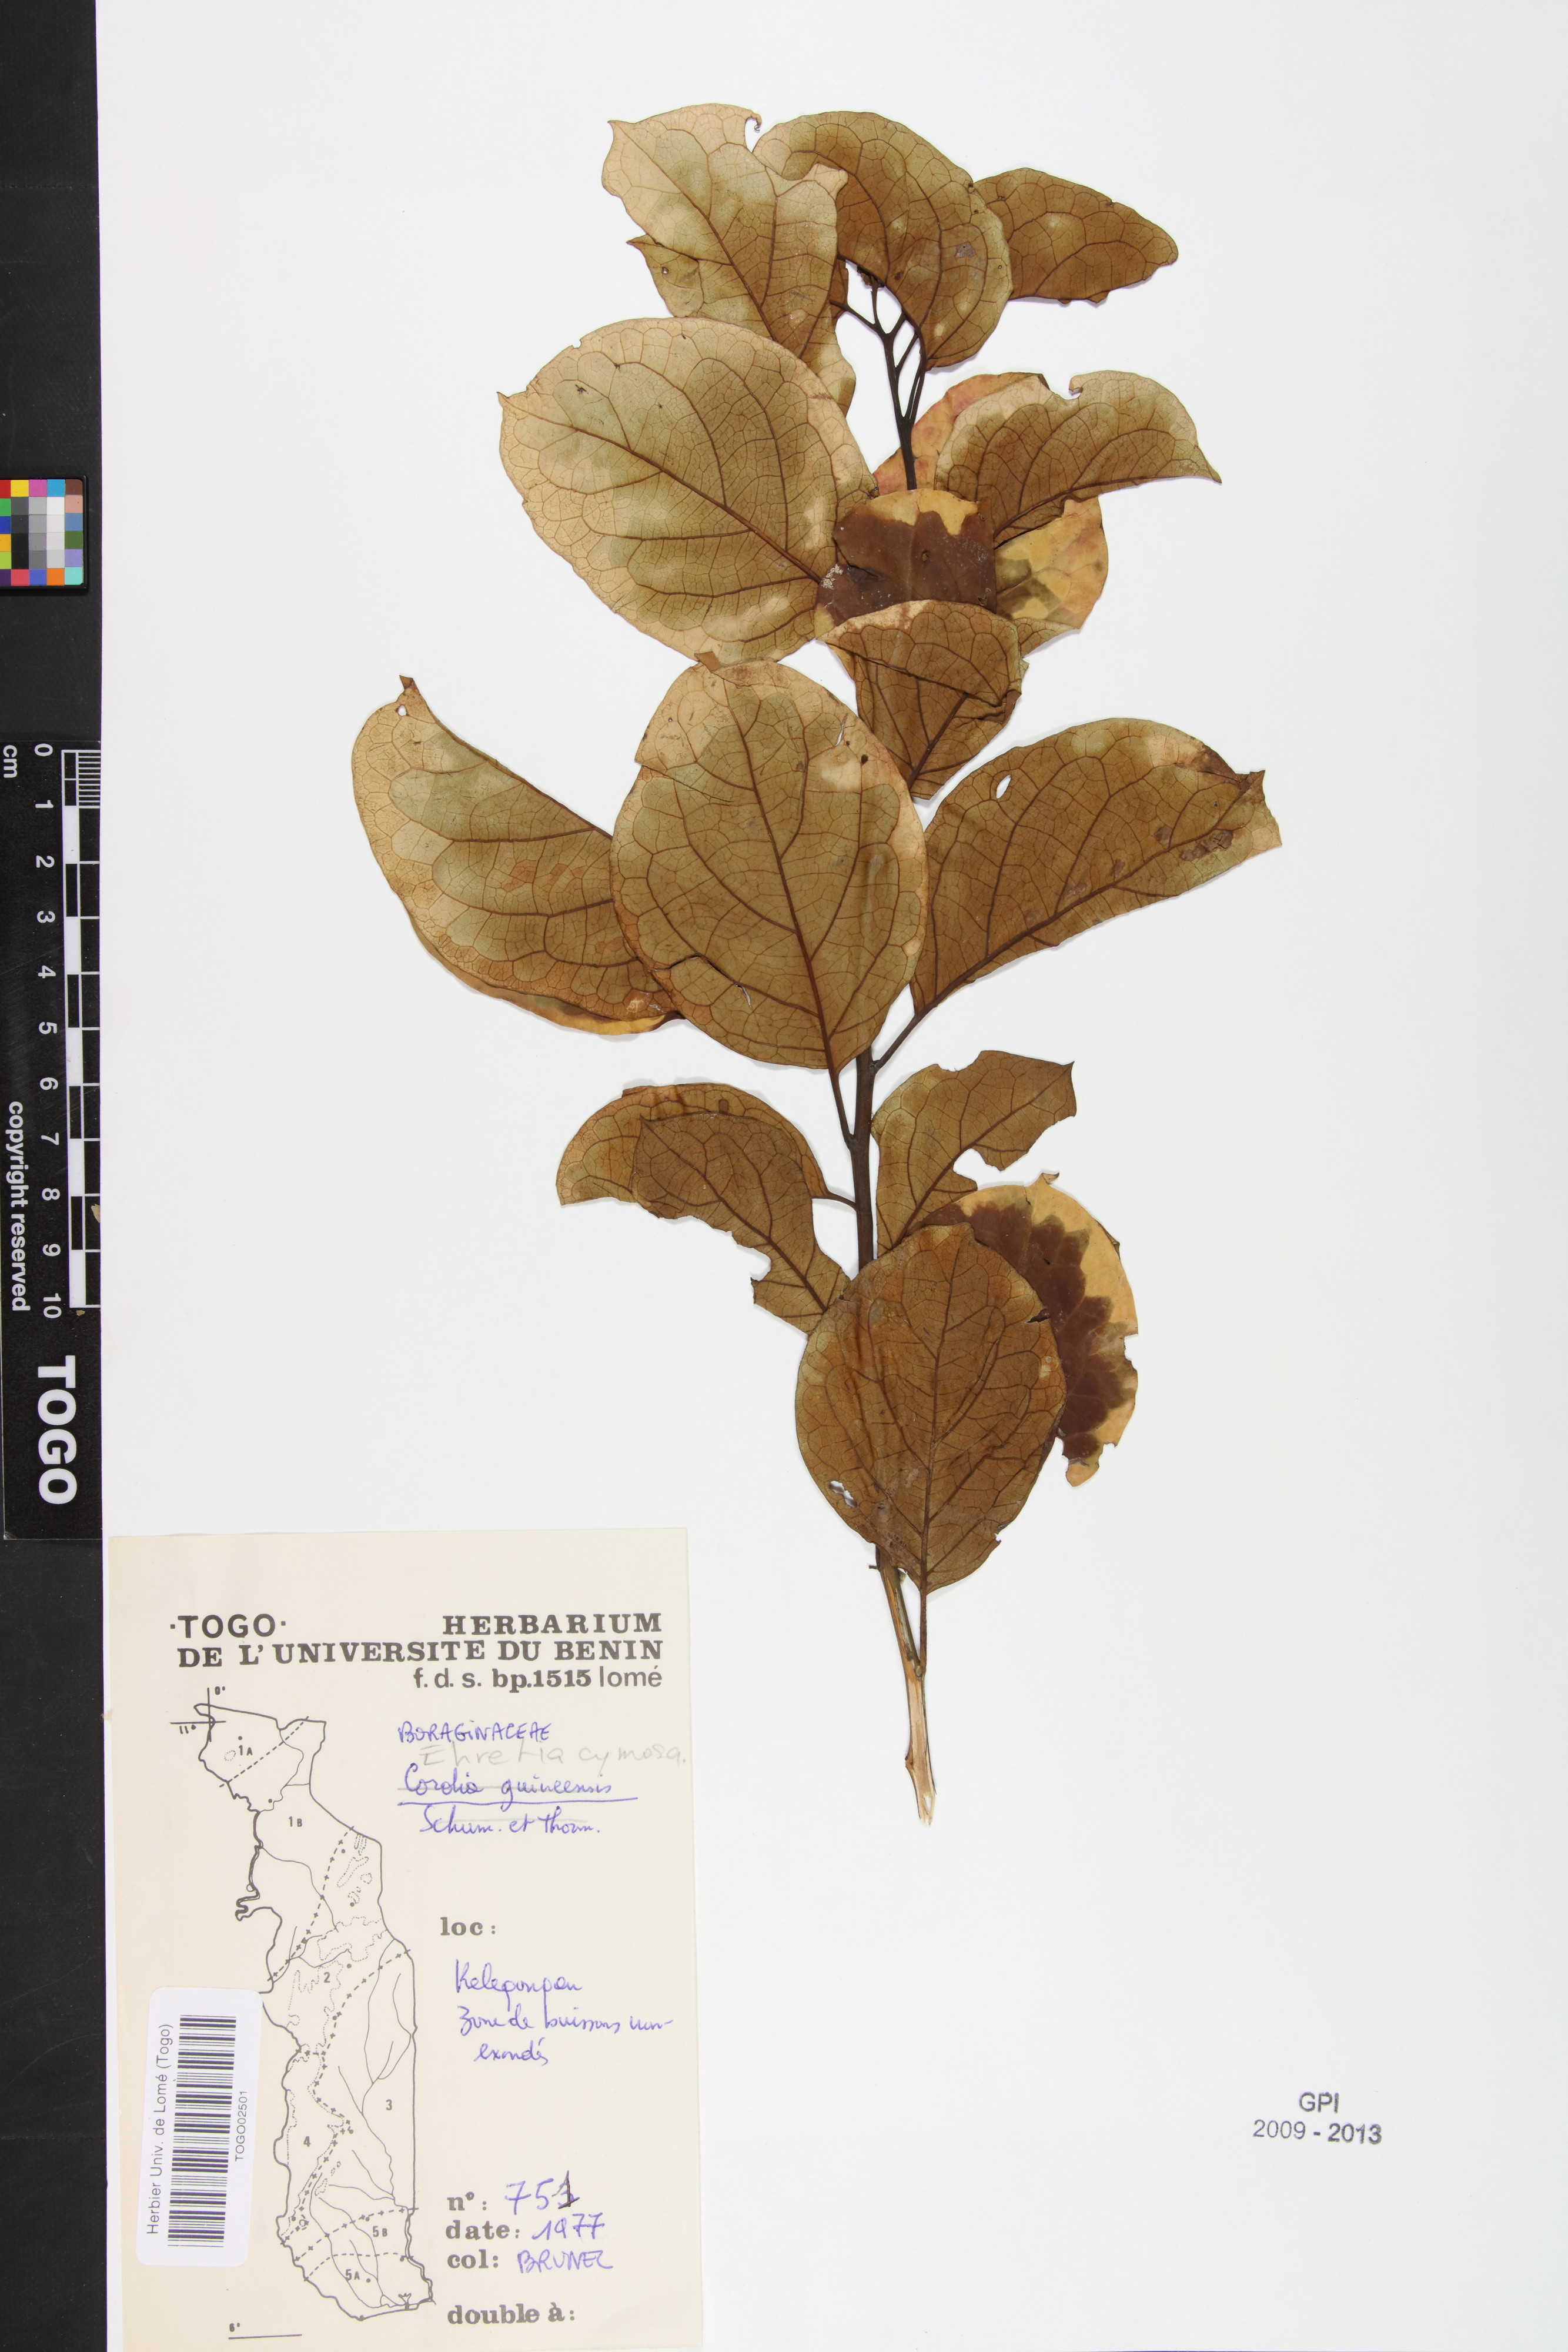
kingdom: Plantae
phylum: Tracheophyta
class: Magnoliopsida
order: Boraginales
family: Ehretiaceae
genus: Ehretia
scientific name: Ehretia cymosa
